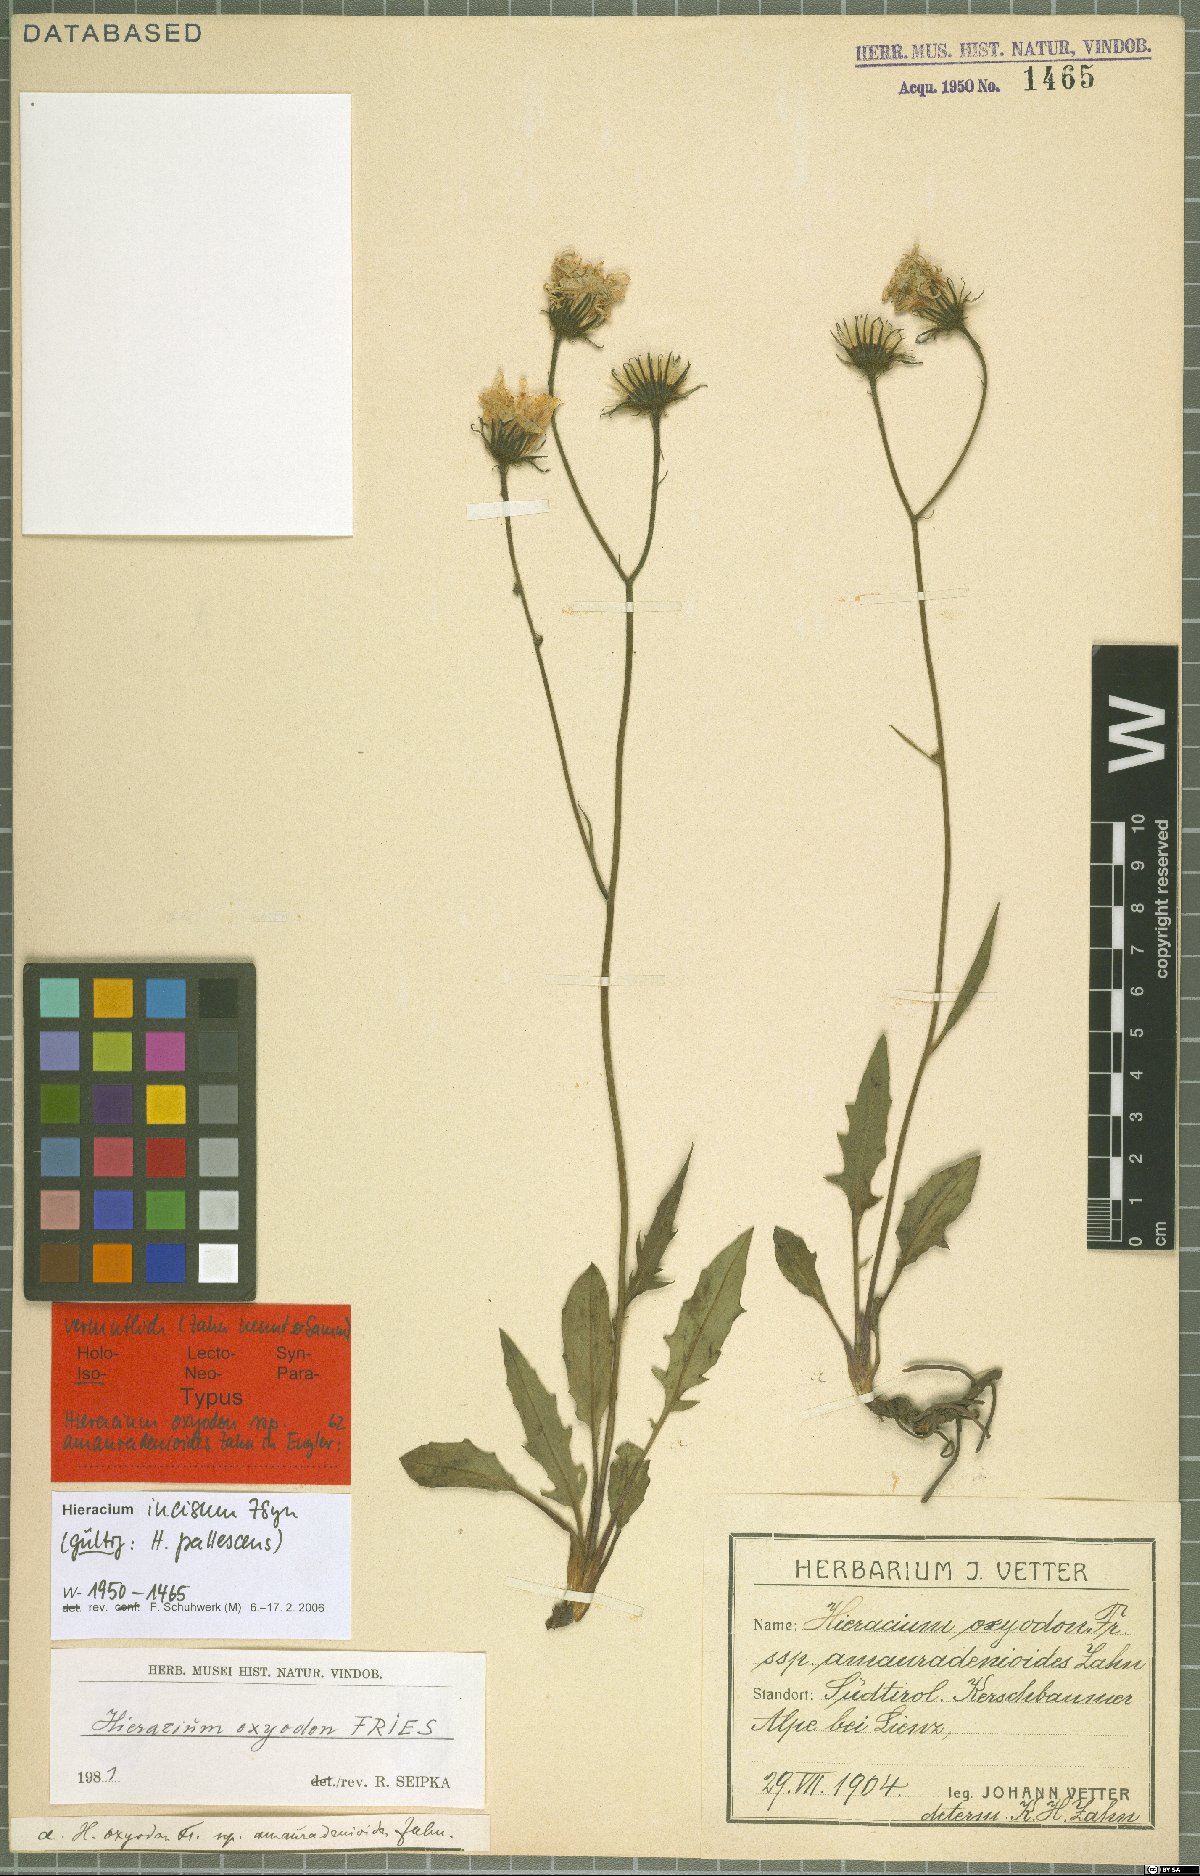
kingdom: Plantae
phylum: Tracheophyta
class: Magnoliopsida
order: Asterales
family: Asteraceae
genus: Hieracium
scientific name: Hieracium pallescens
